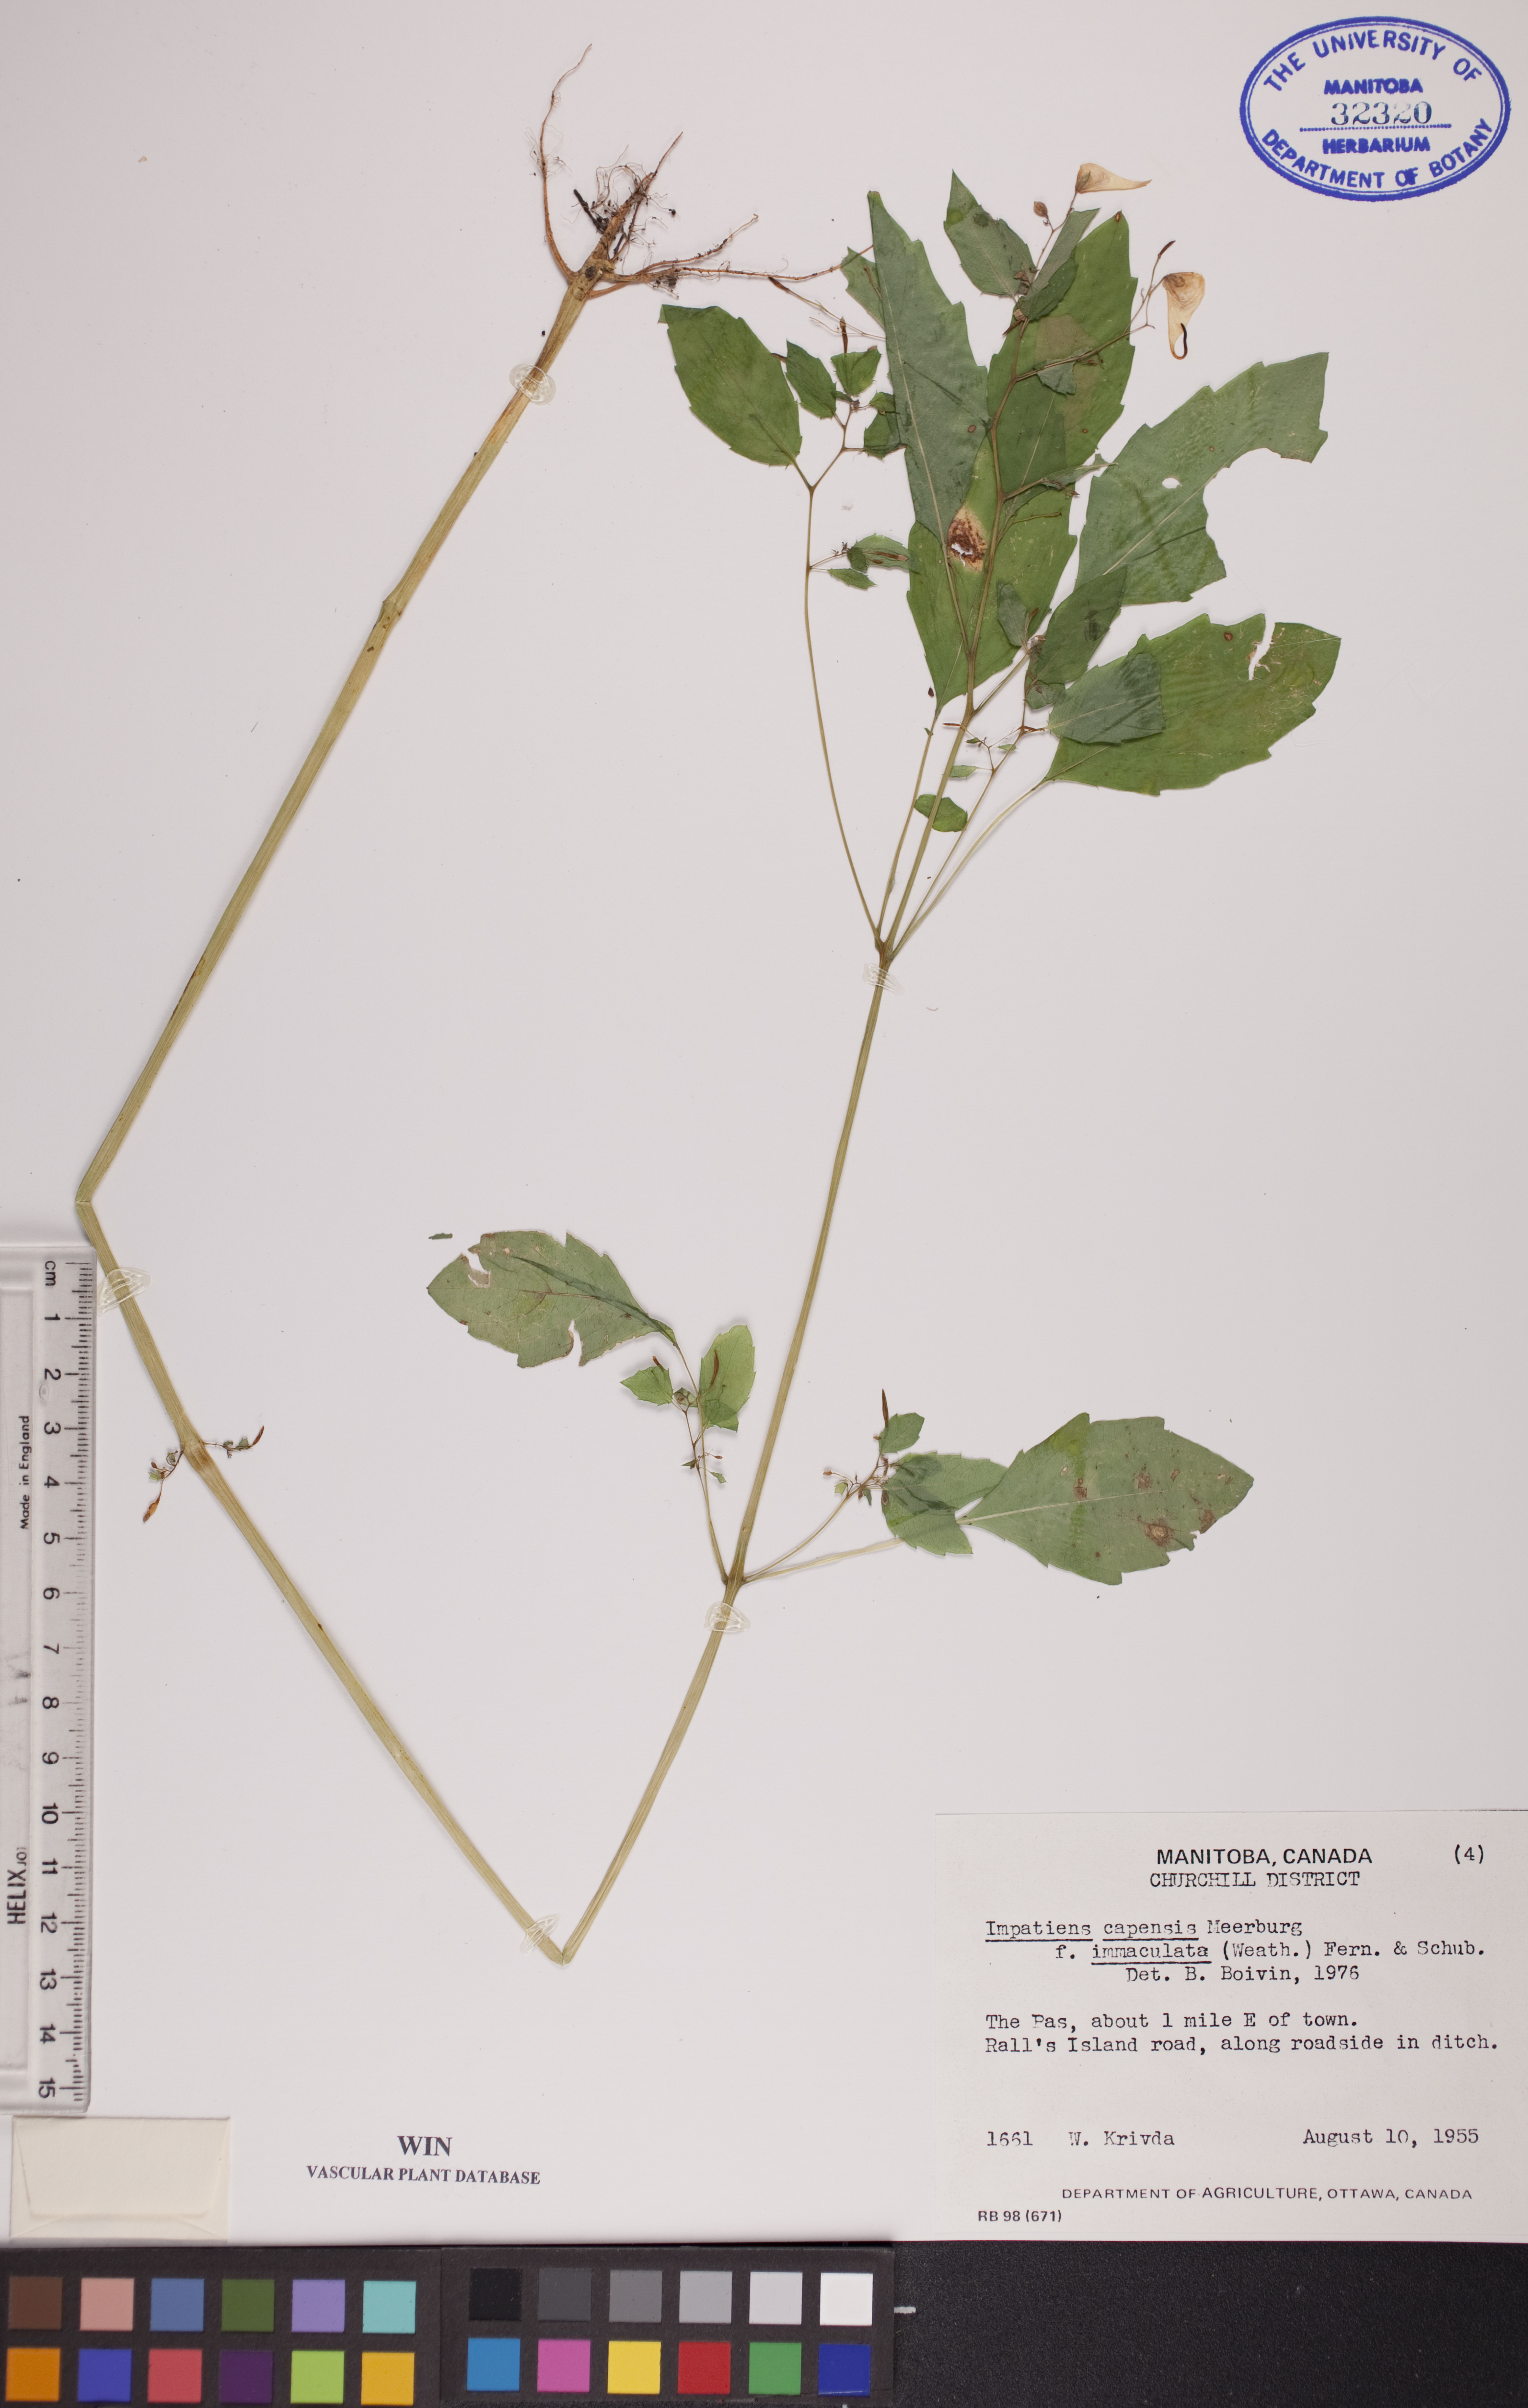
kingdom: Plantae
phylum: Tracheophyta
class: Magnoliopsida
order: Ericales
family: Balsaminaceae
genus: Impatiens
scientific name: Impatiens capensis
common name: Orange balsam
